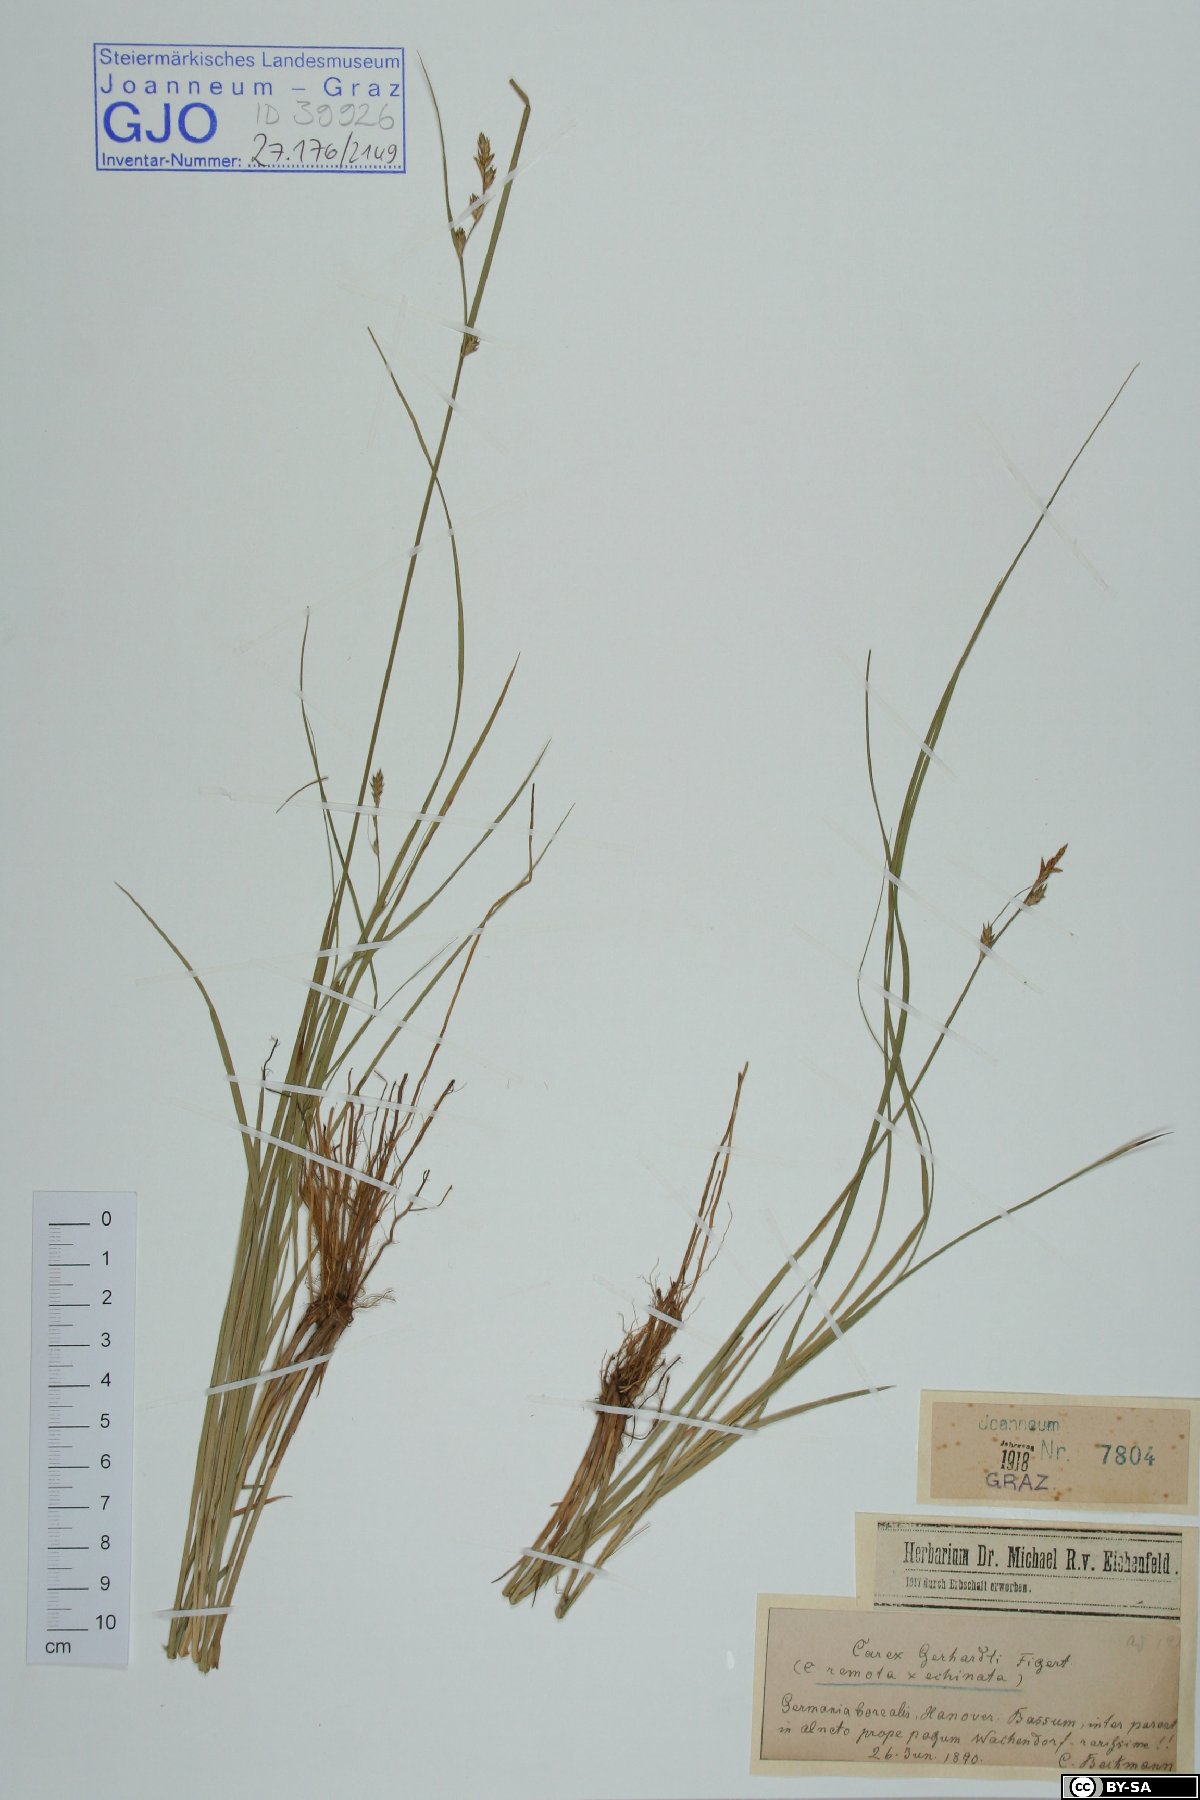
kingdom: Plantae
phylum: Tracheophyta
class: Liliopsida
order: Poales
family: Cyperaceae
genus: Carex
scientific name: Carex gerhardtii
